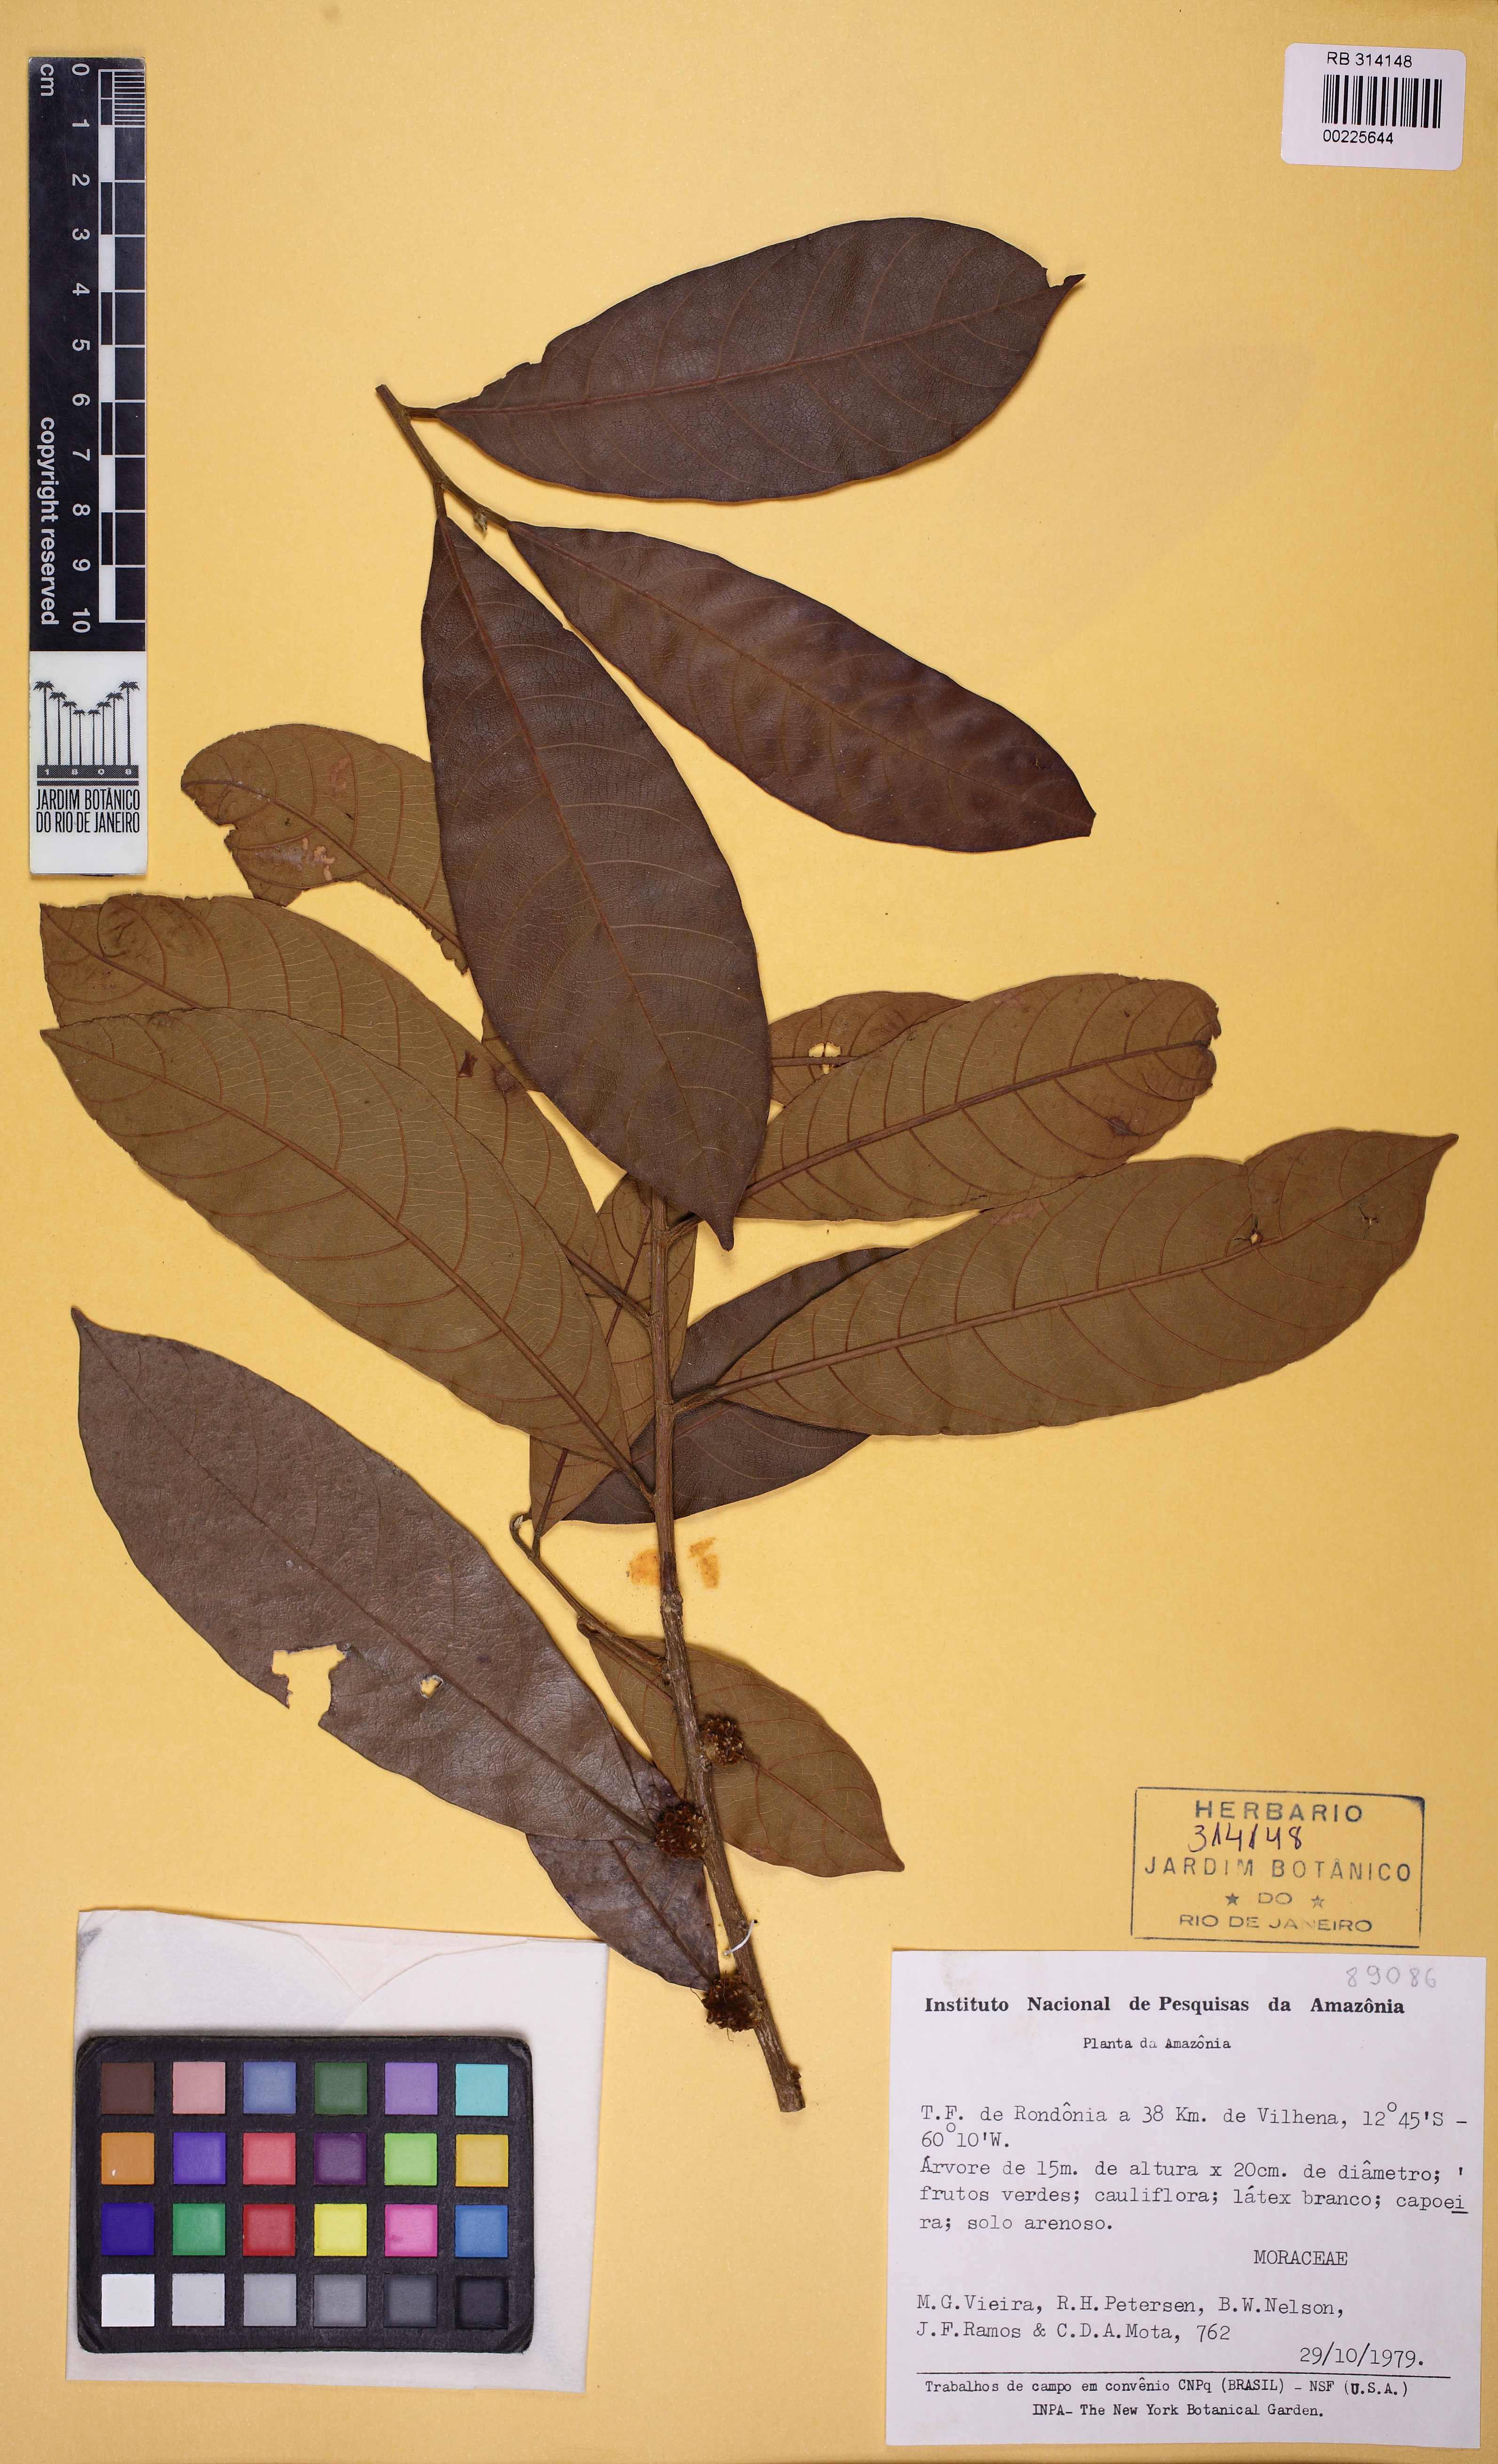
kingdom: Plantae
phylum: Tracheophyta
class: Magnoliopsida
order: Rosales
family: Moraceae
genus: Helicostylis
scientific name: Helicostylis
